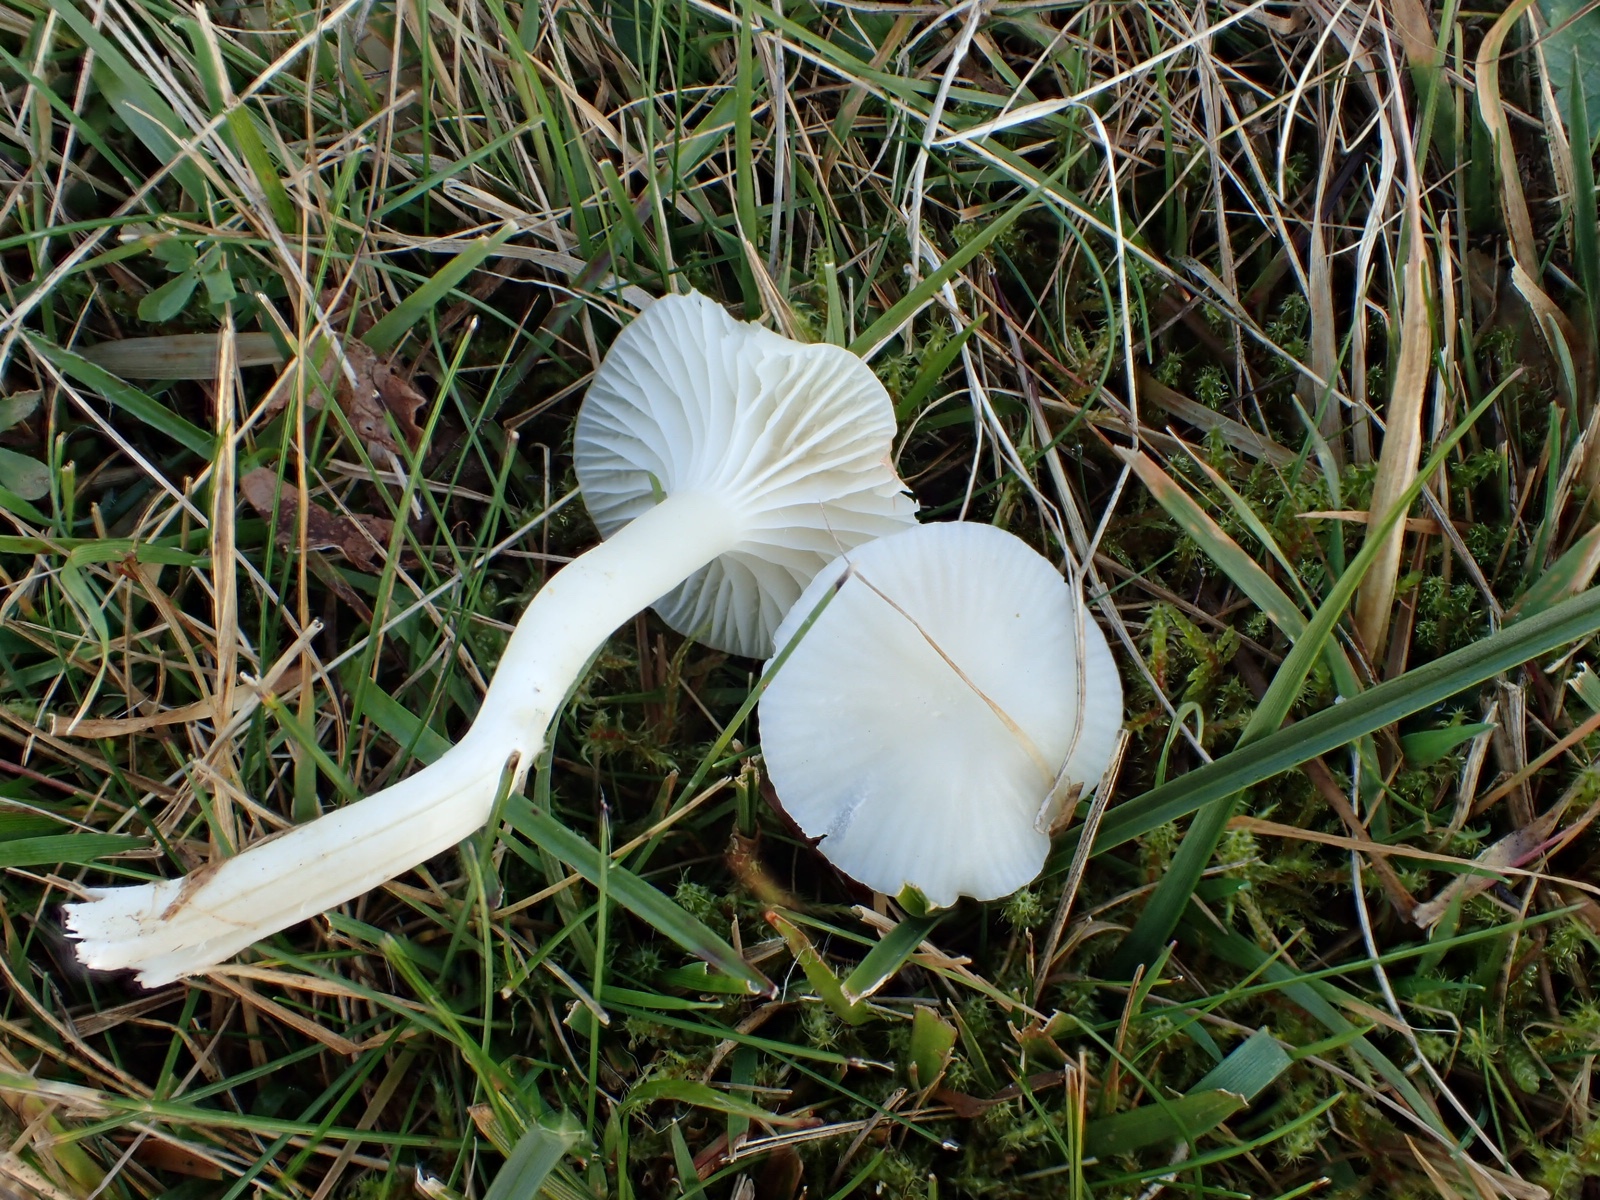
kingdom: Fungi
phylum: Basidiomycota
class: Agaricomycetes
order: Agaricales
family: Hygrophoraceae
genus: Cuphophyllus
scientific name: Cuphophyllus virgineus
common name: snehvid vokshat
